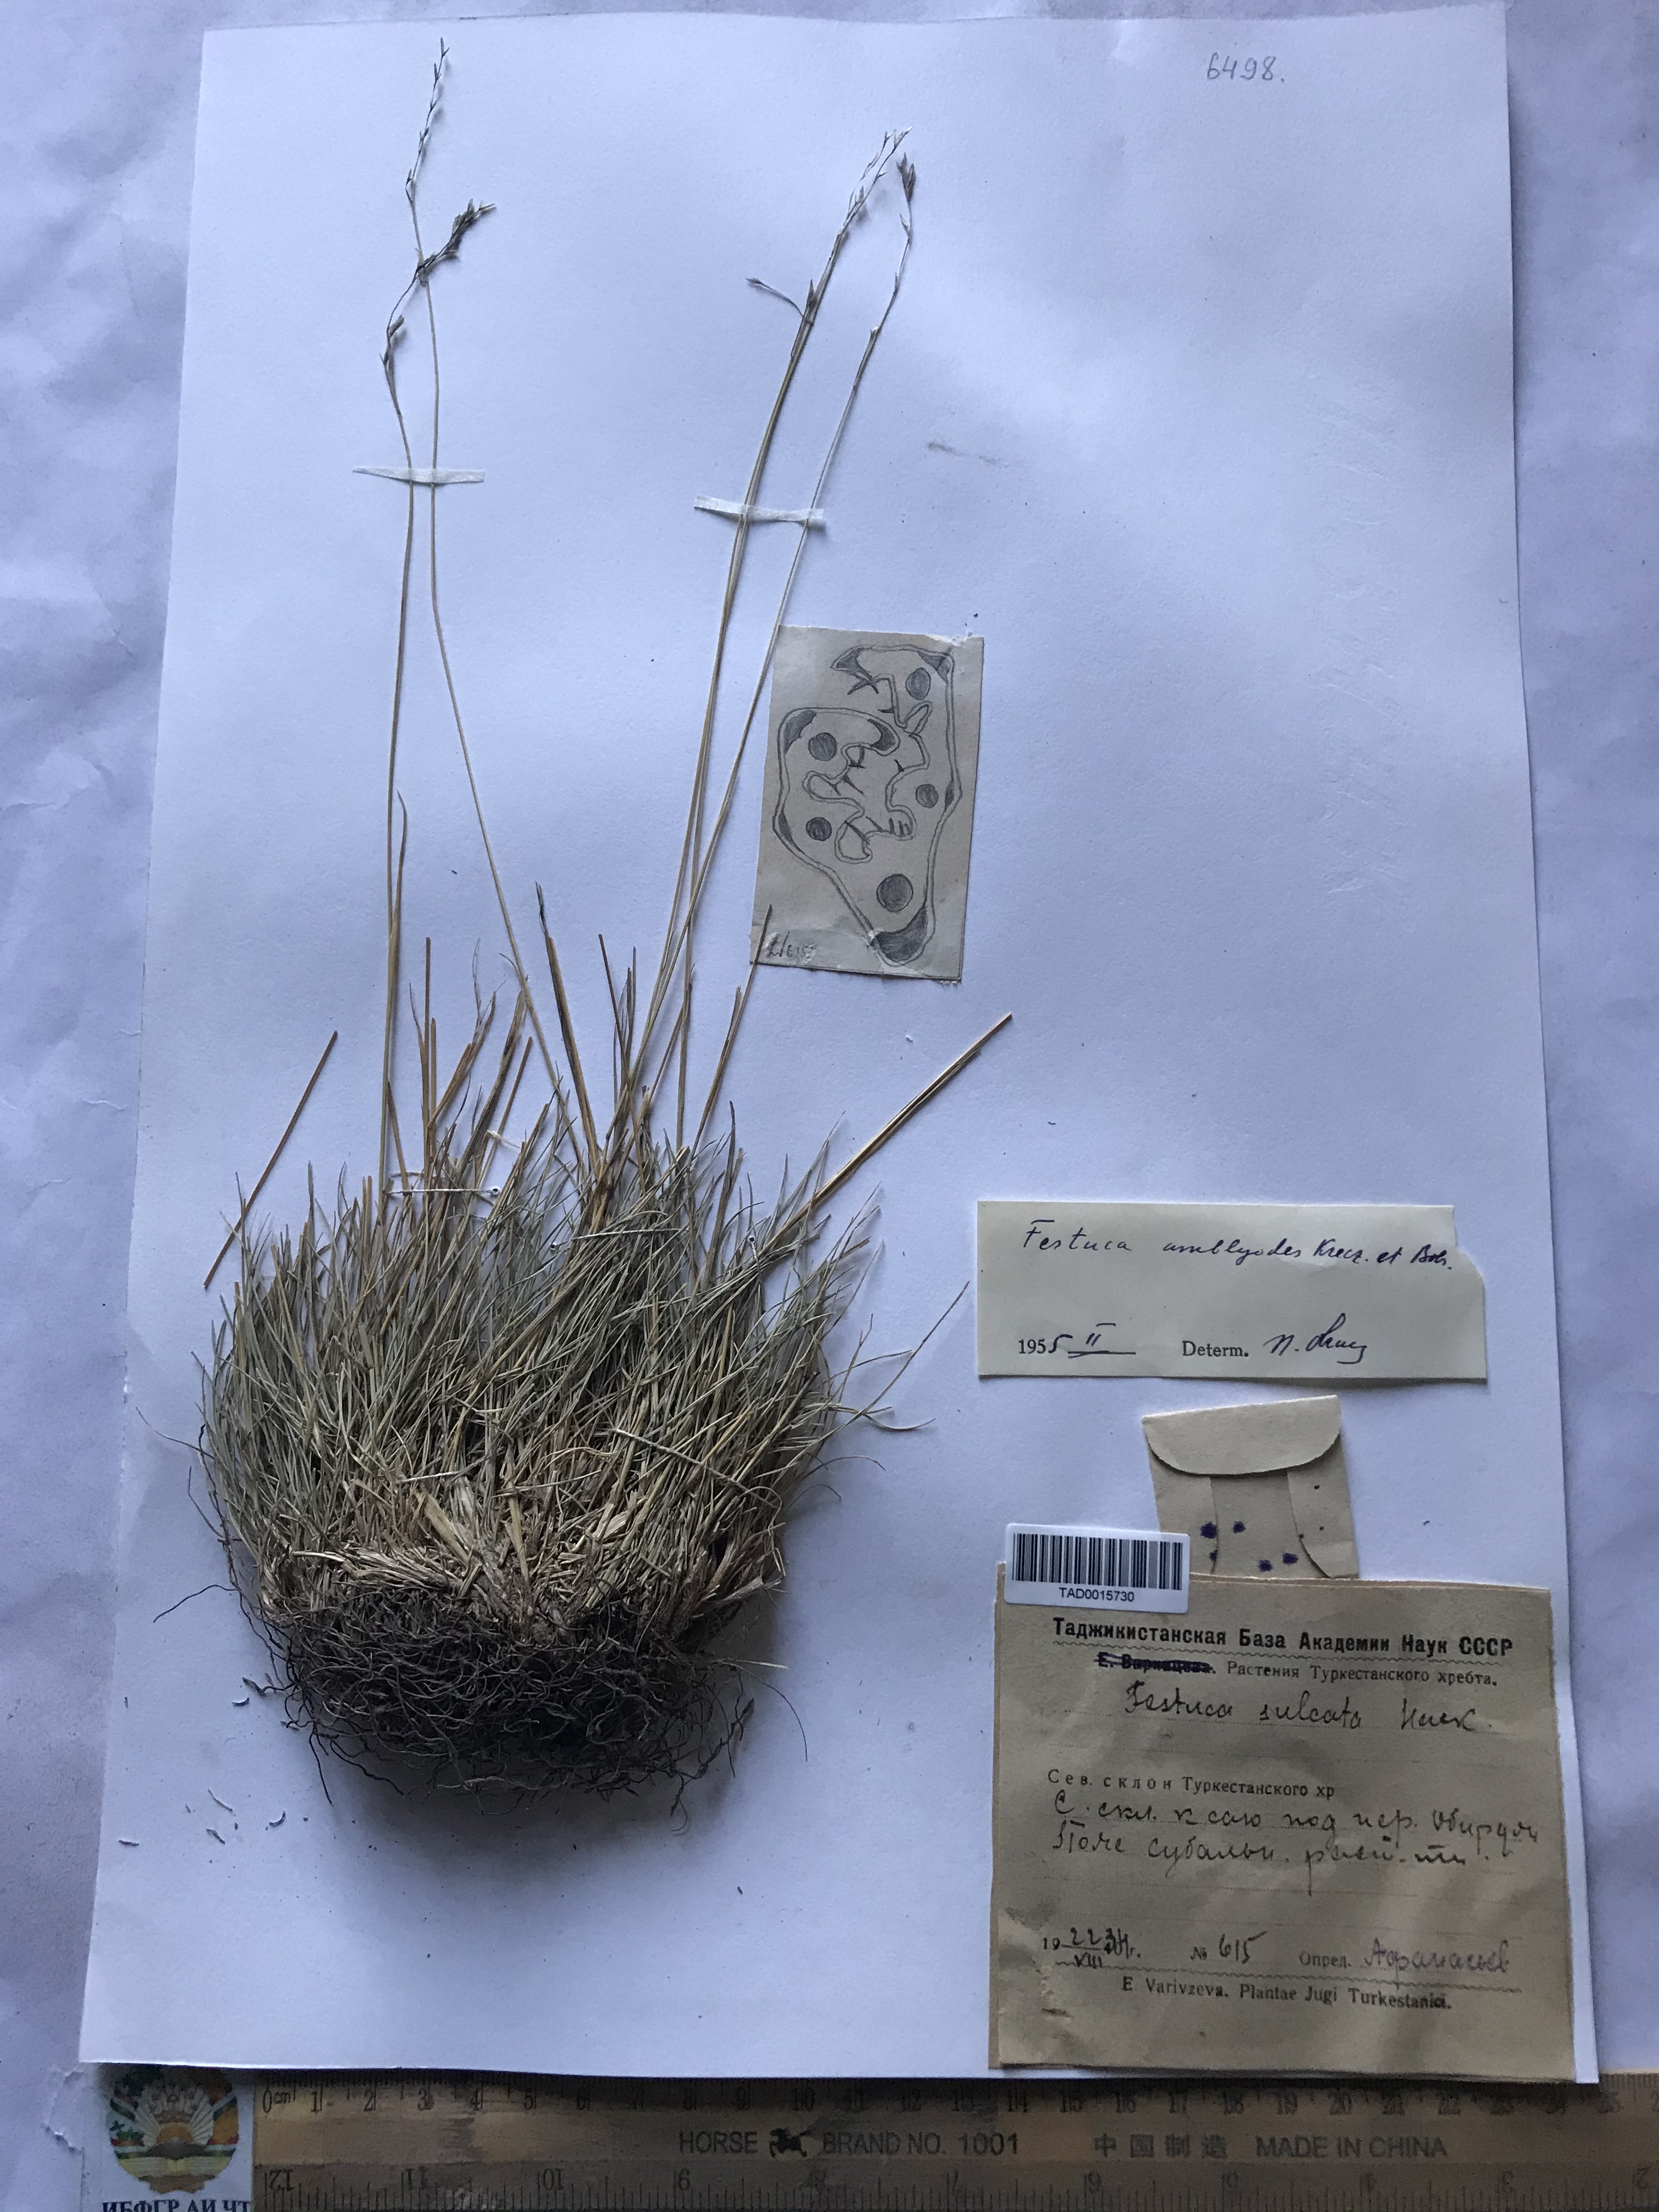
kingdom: Plantae
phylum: Tracheophyta
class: Liliopsida
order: Poales
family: Poaceae
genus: Festuca
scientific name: Festuca amblyodes
